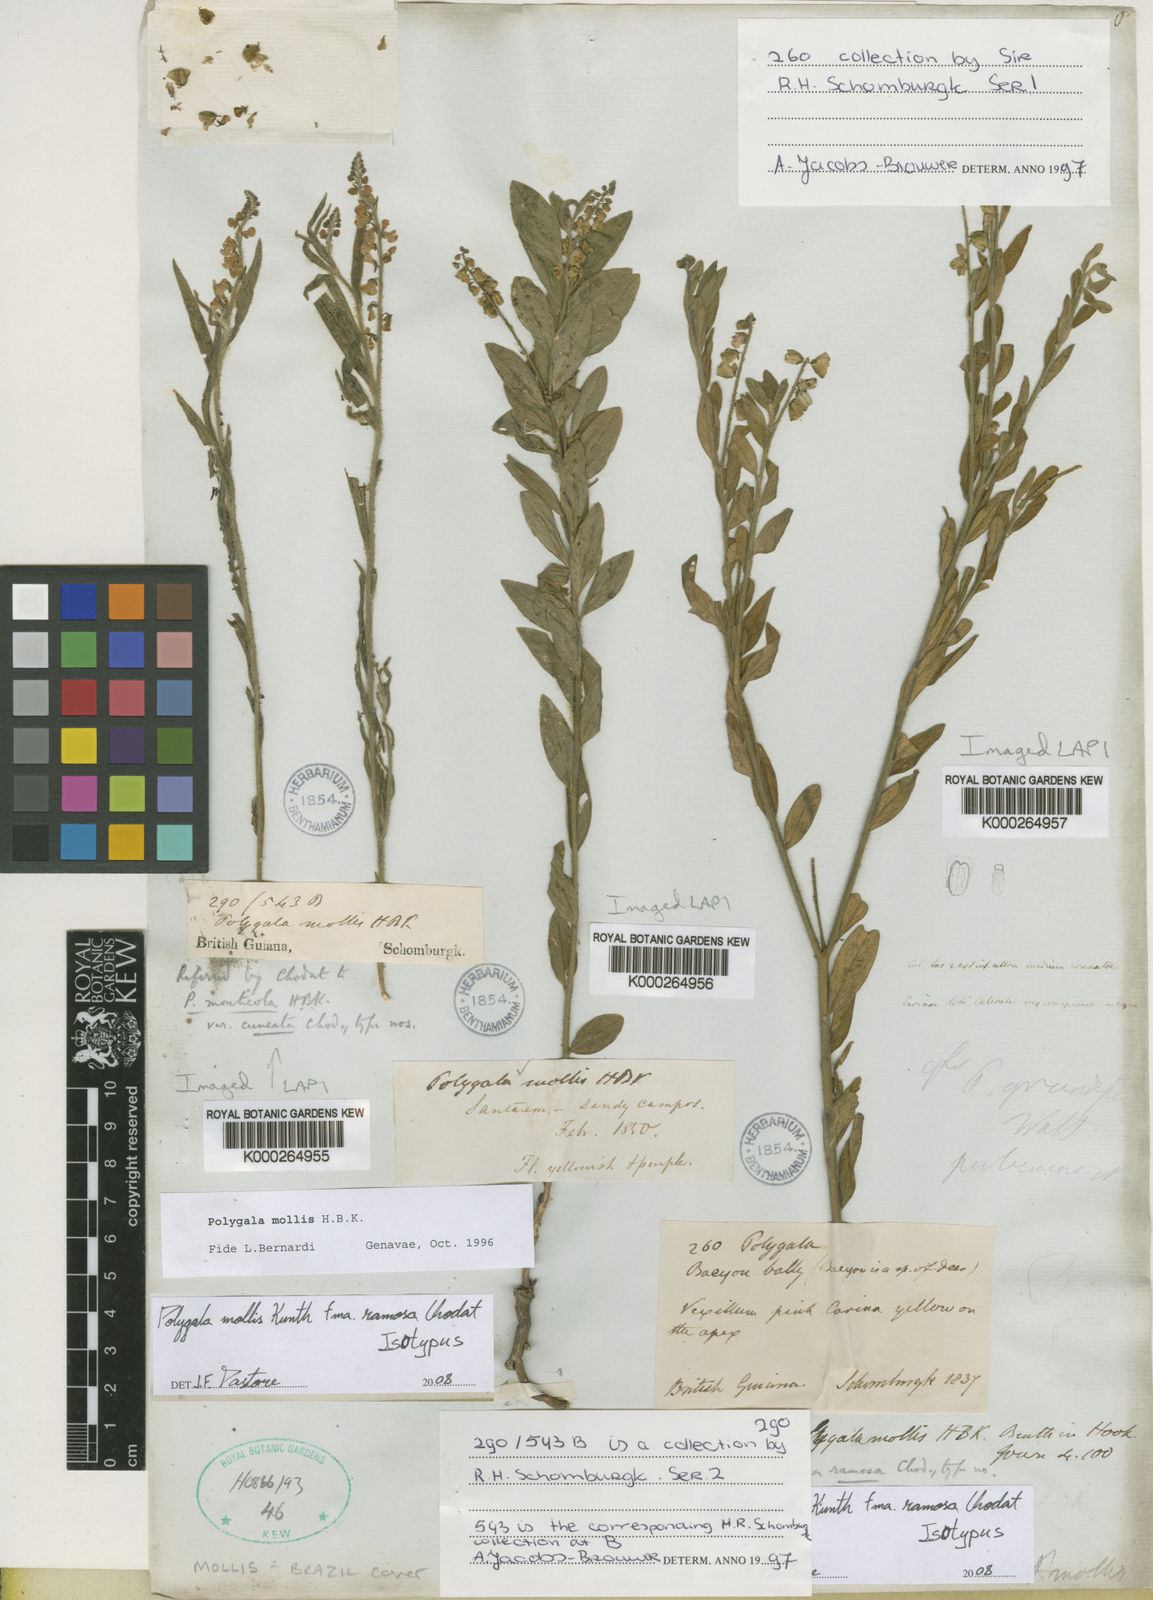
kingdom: Plantae
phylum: Tracheophyta
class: Magnoliopsida
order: Fabales
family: Polygalaceae
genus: Asemeia
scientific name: Asemeia mollis
